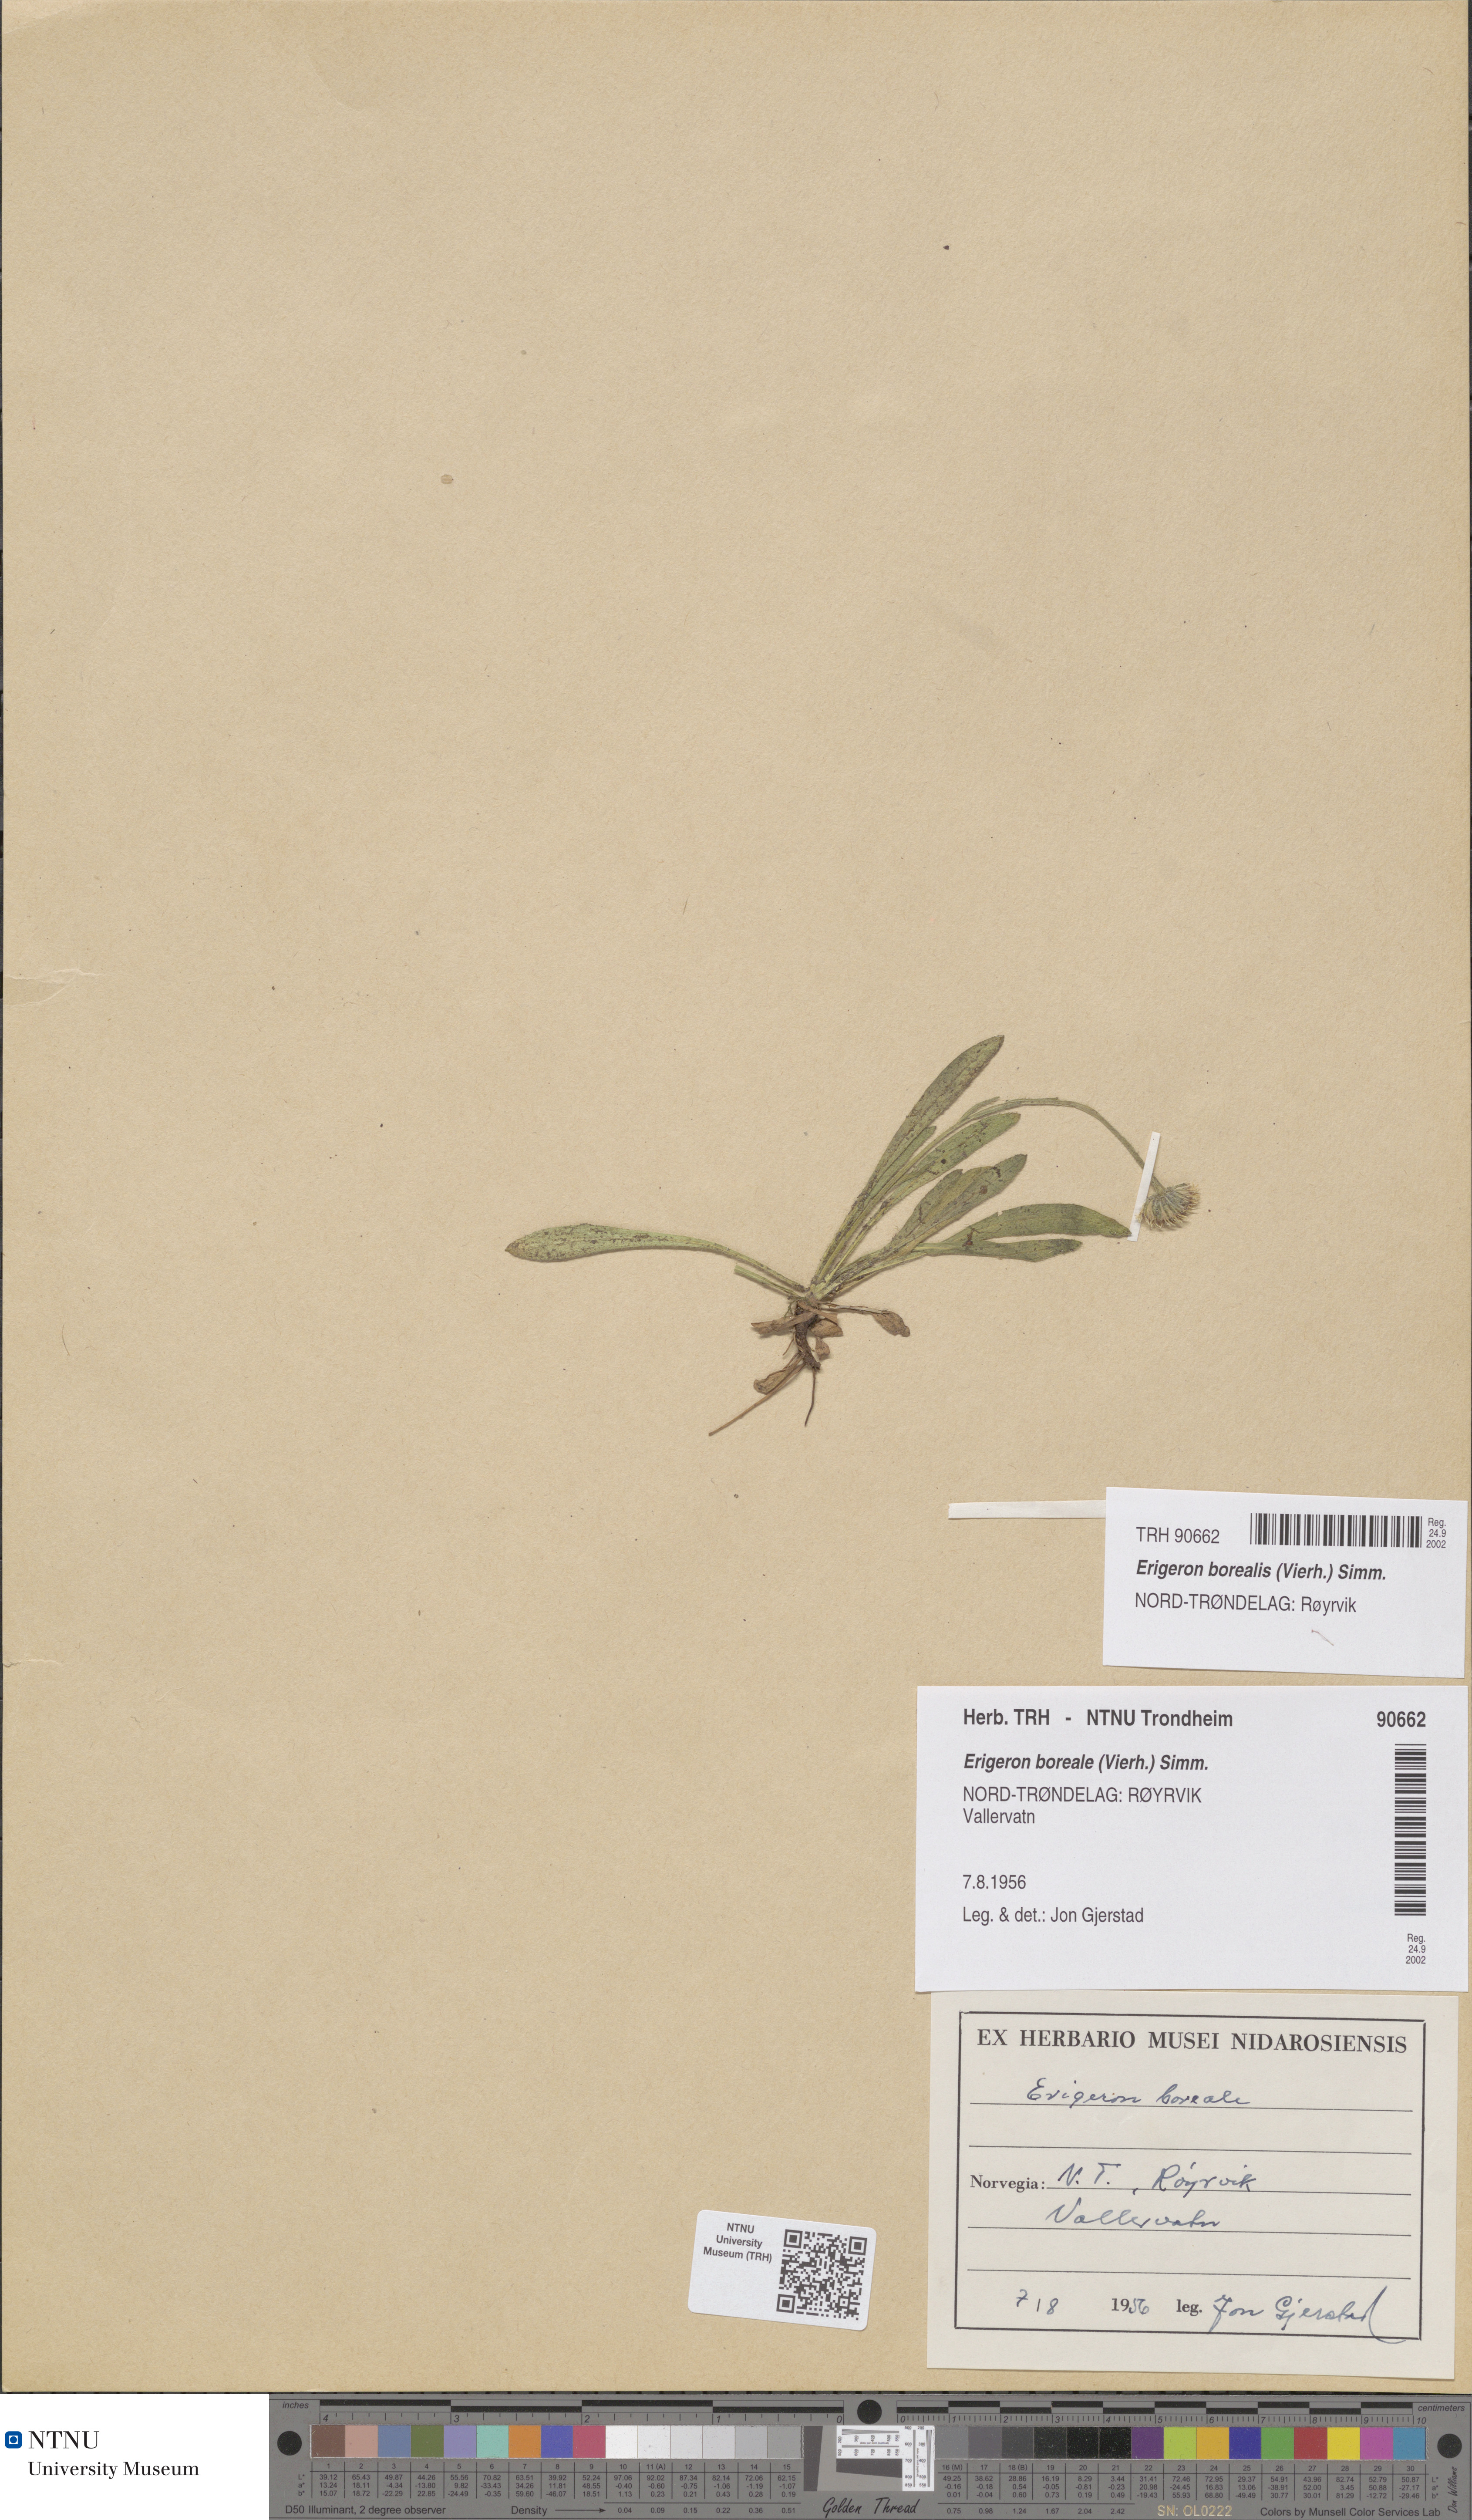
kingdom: Plantae
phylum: Tracheophyta
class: Magnoliopsida
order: Asterales
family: Asteraceae
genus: Erigeron
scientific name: Erigeron borealis
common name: Alpine fleabane
